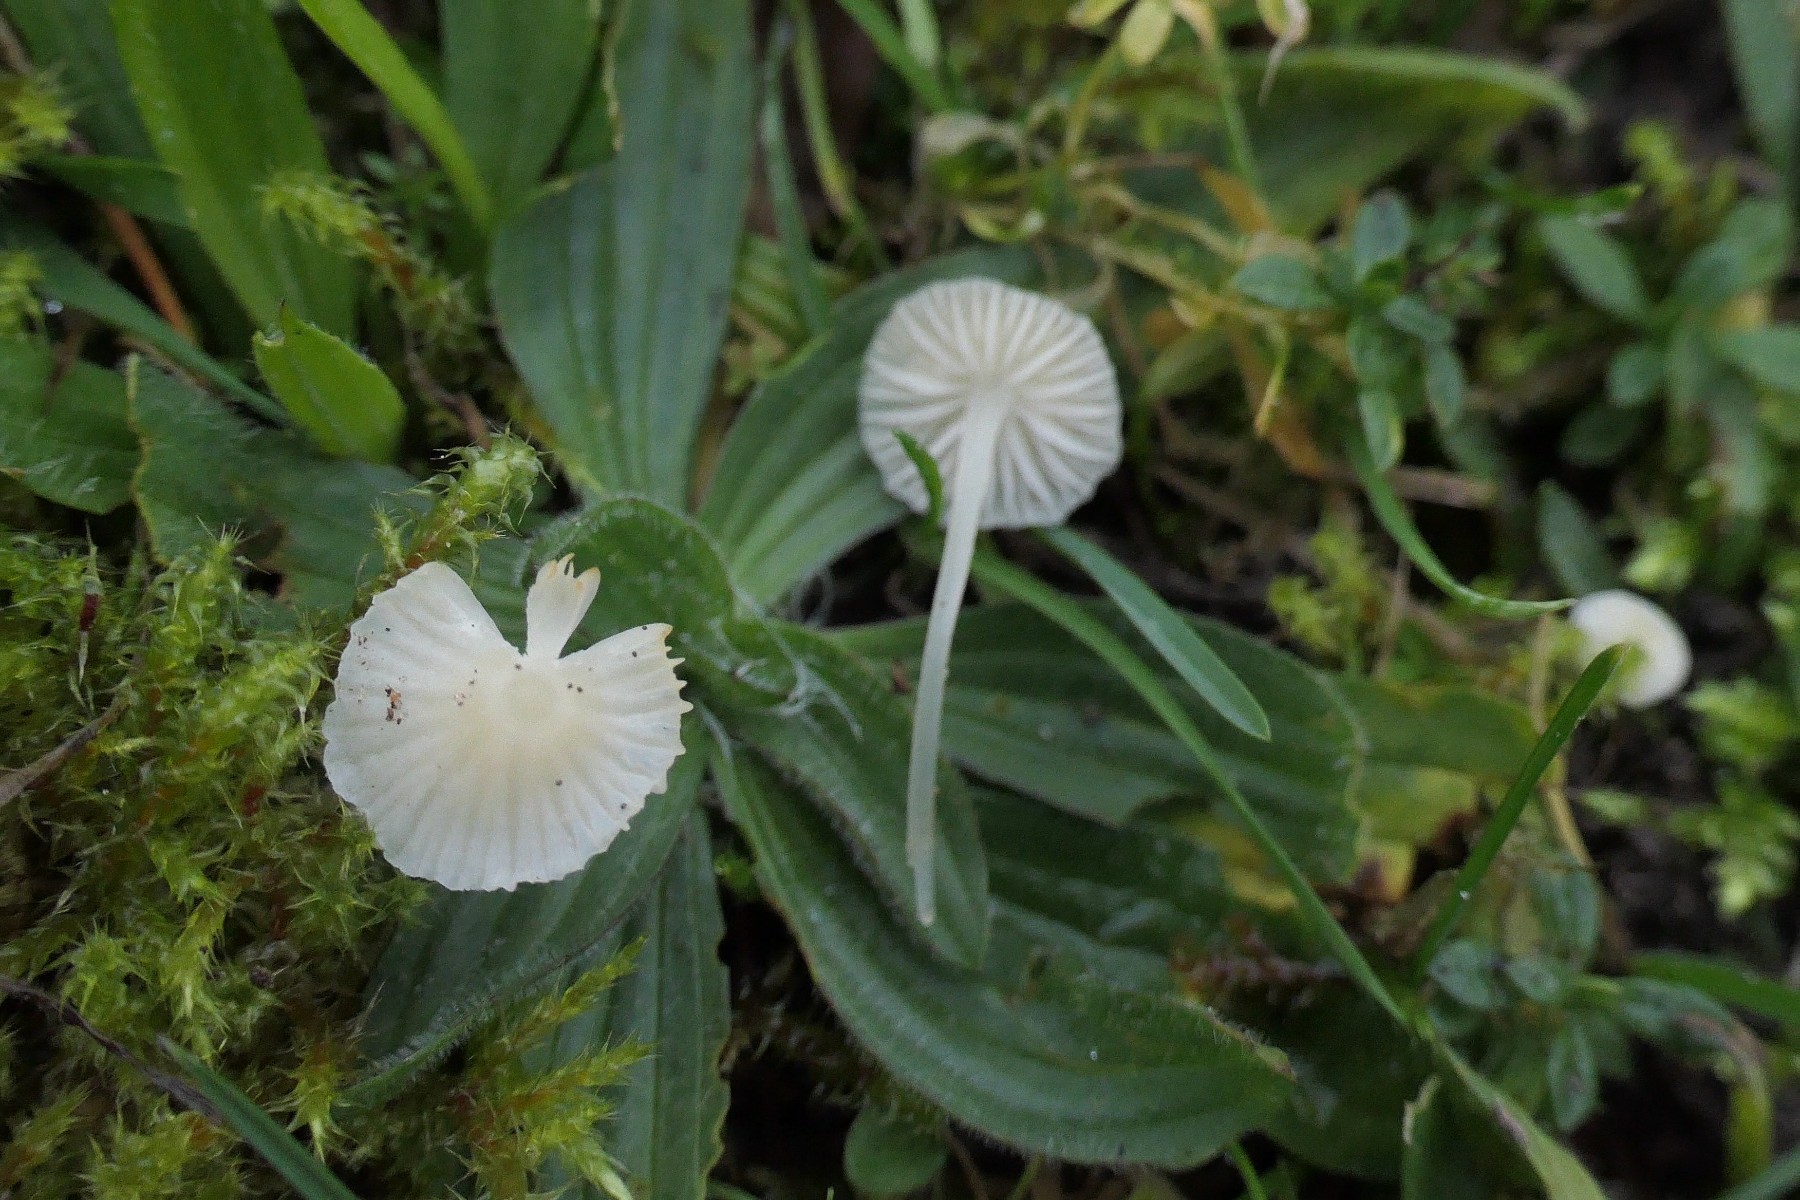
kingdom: Fungi
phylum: Basidiomycota
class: Agaricomycetes
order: Agaricales
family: Mycenaceae
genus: Atheniella
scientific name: Atheniella flavoalba
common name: gulhvid huesvamp
